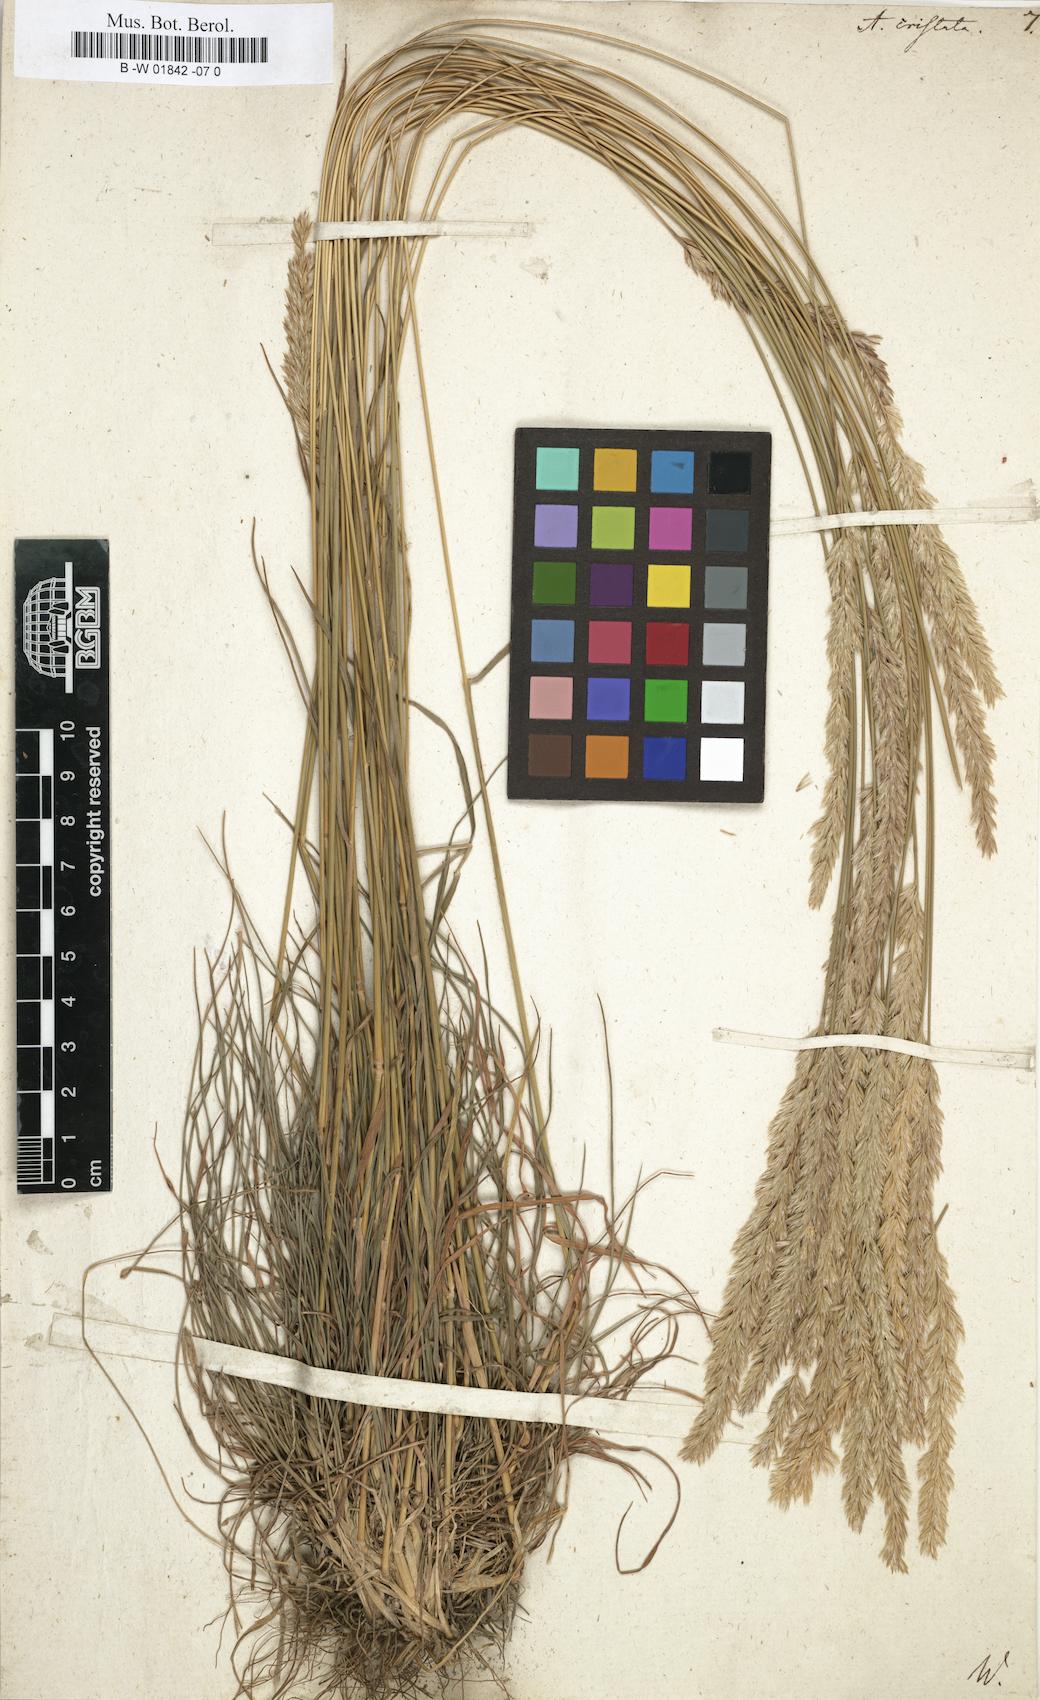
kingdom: Plantae
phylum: Tracheophyta
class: Liliopsida
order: Poales
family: Poaceae
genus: Koeleria
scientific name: Koeleria macrantha
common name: Crested hair-grass
